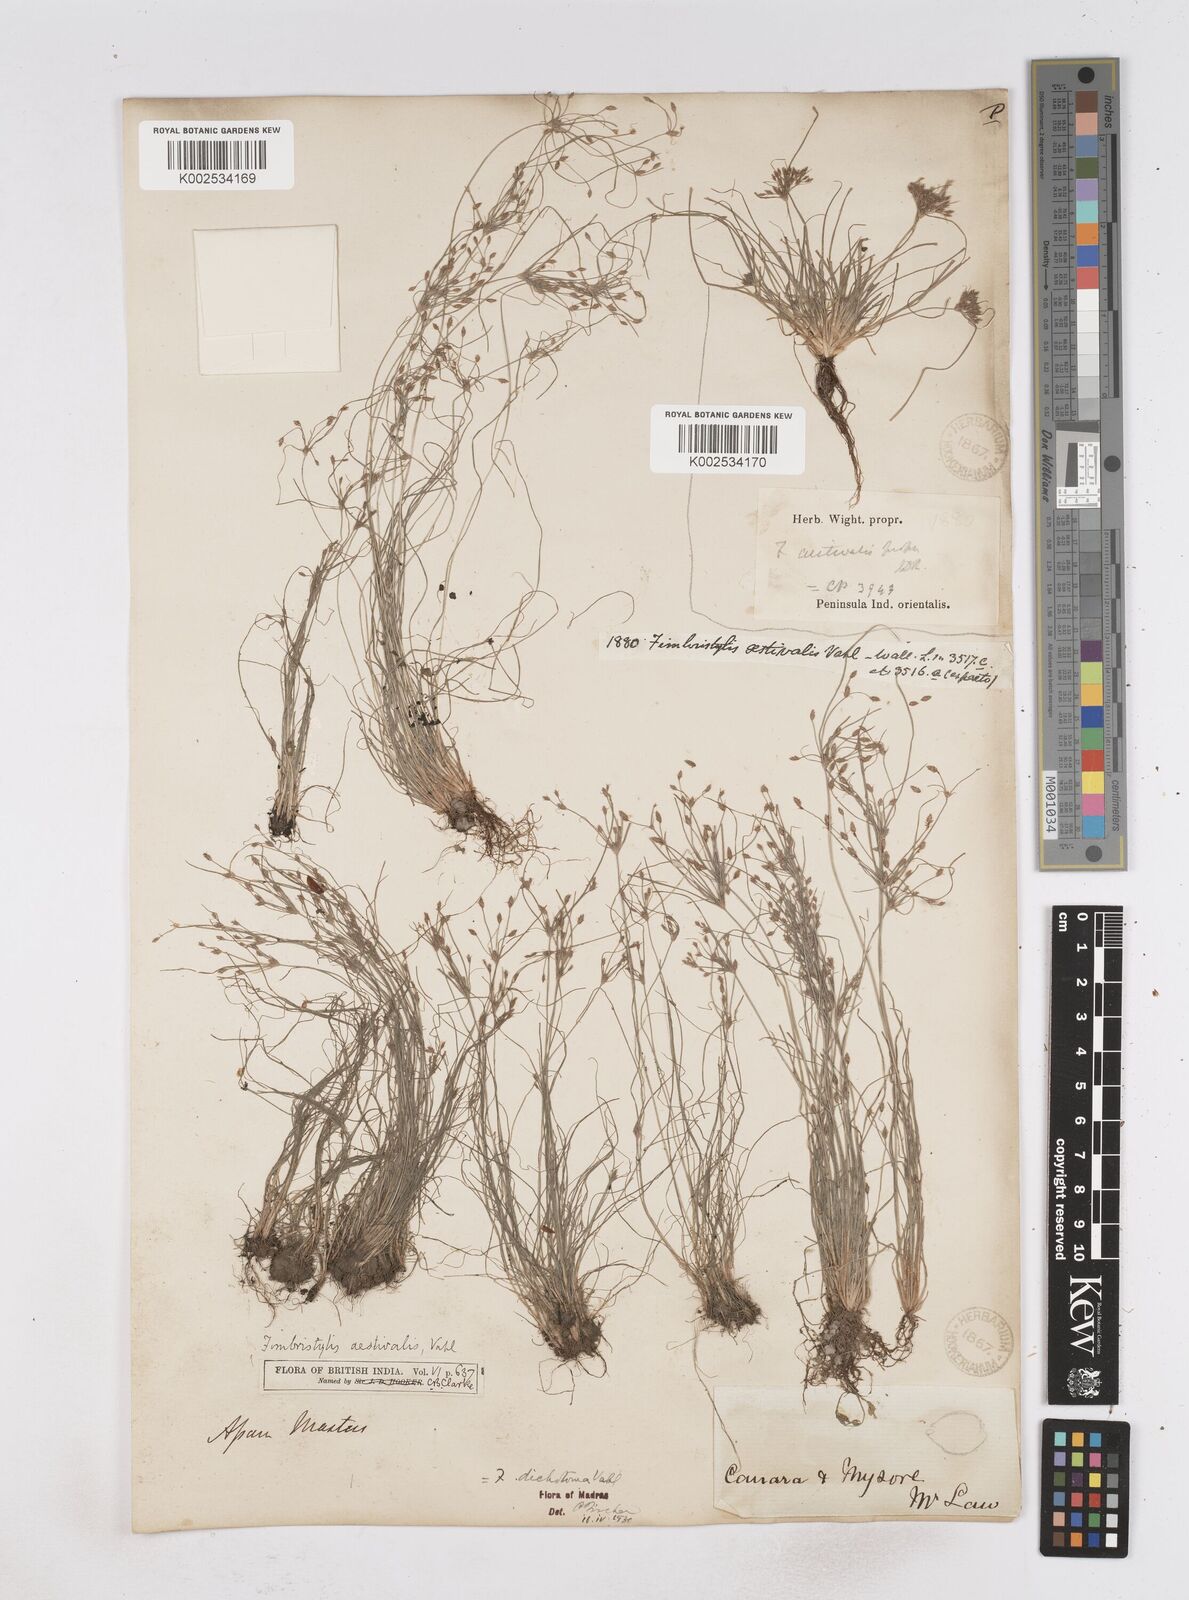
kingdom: Plantae
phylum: Tracheophyta
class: Liliopsida
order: Poales
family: Cyperaceae
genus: Fimbristylis
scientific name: Fimbristylis aestivalis
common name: Summer fimbry
